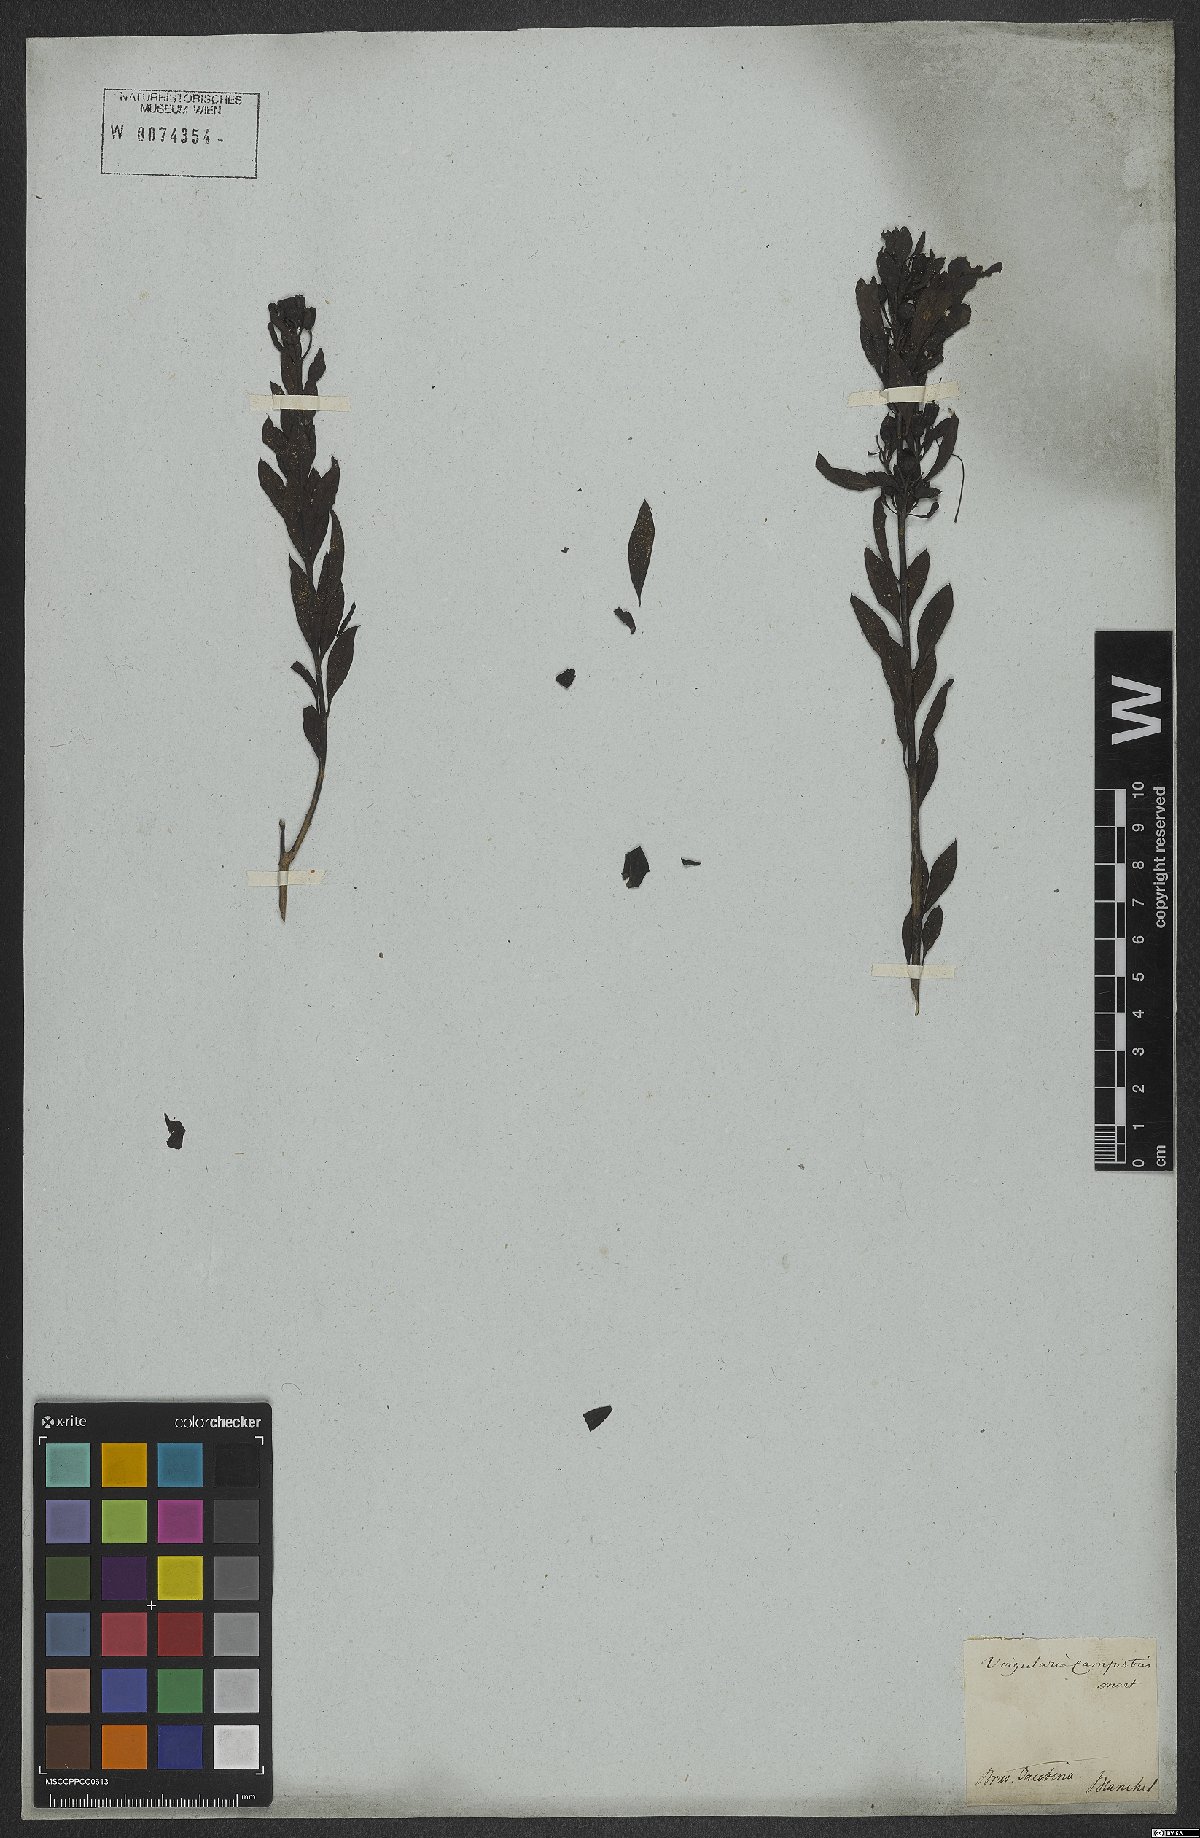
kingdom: Plantae
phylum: Tracheophyta
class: Magnoliopsida
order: Lamiales
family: Orobanchaceae
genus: Esterhazya
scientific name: Esterhazya splendida
